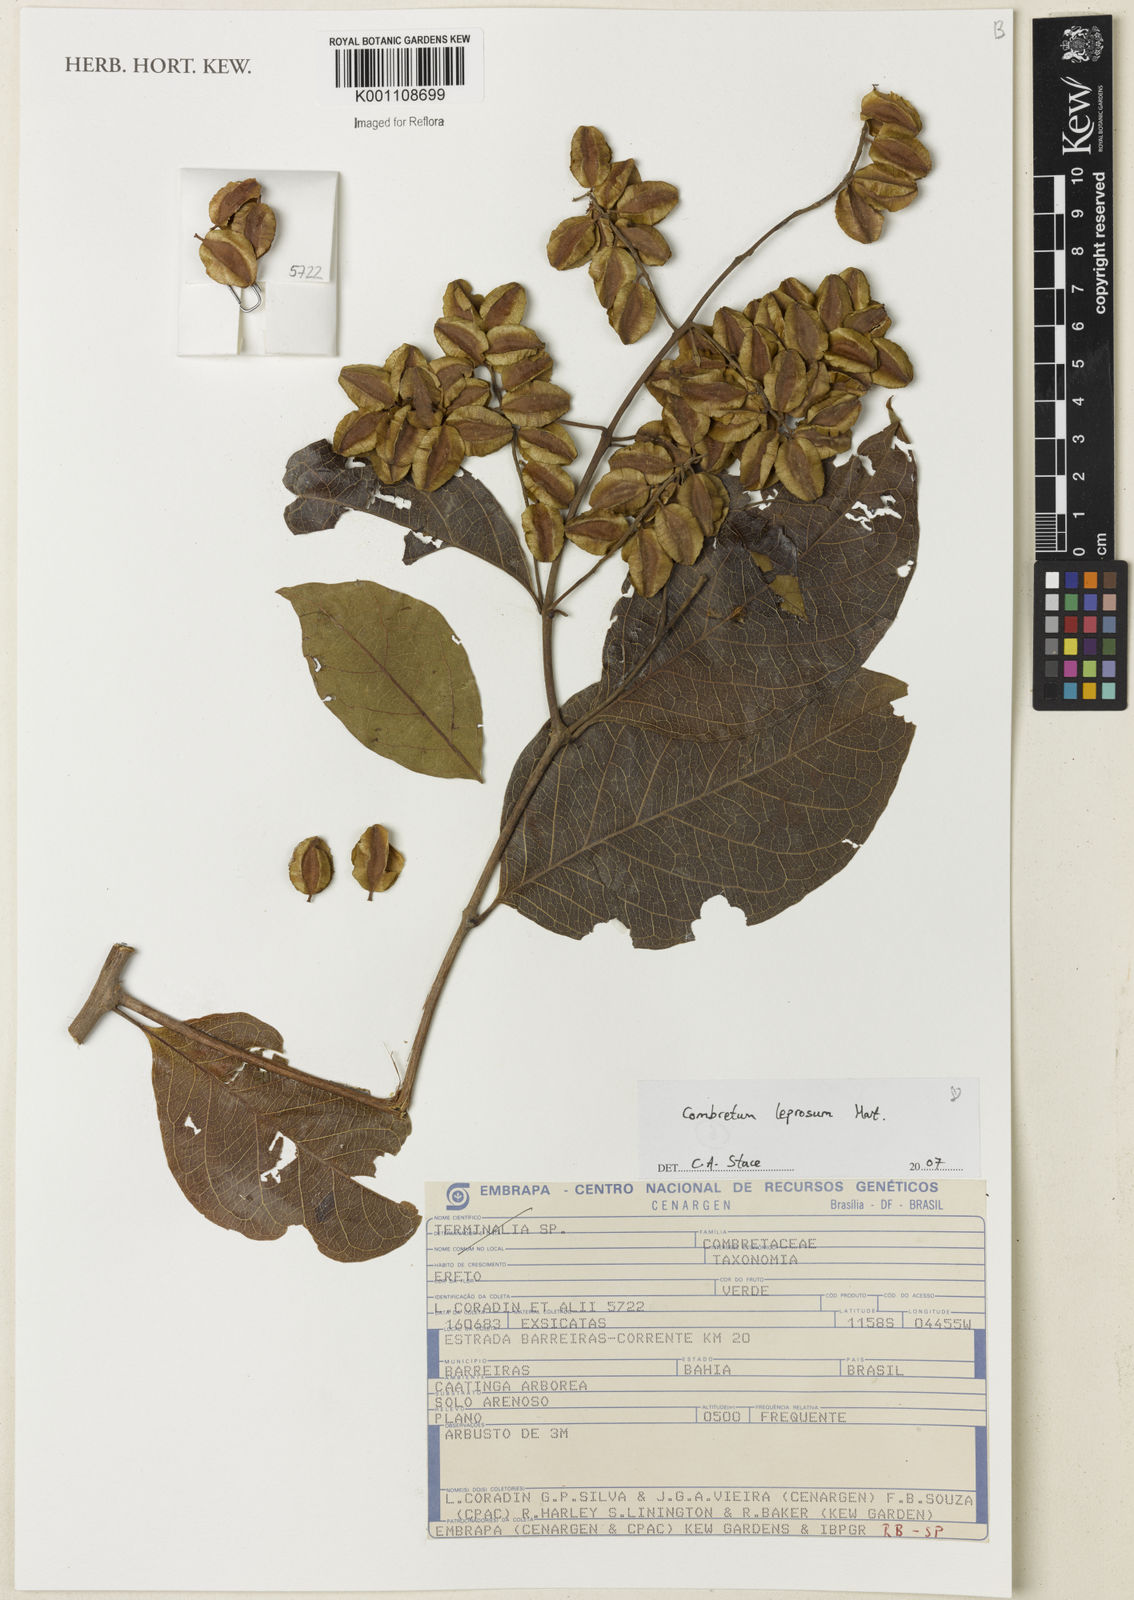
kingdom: Plantae
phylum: Tracheophyta
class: Magnoliopsida
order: Myrtales
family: Combretaceae
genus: Combretum
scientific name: Combretum leprosum
